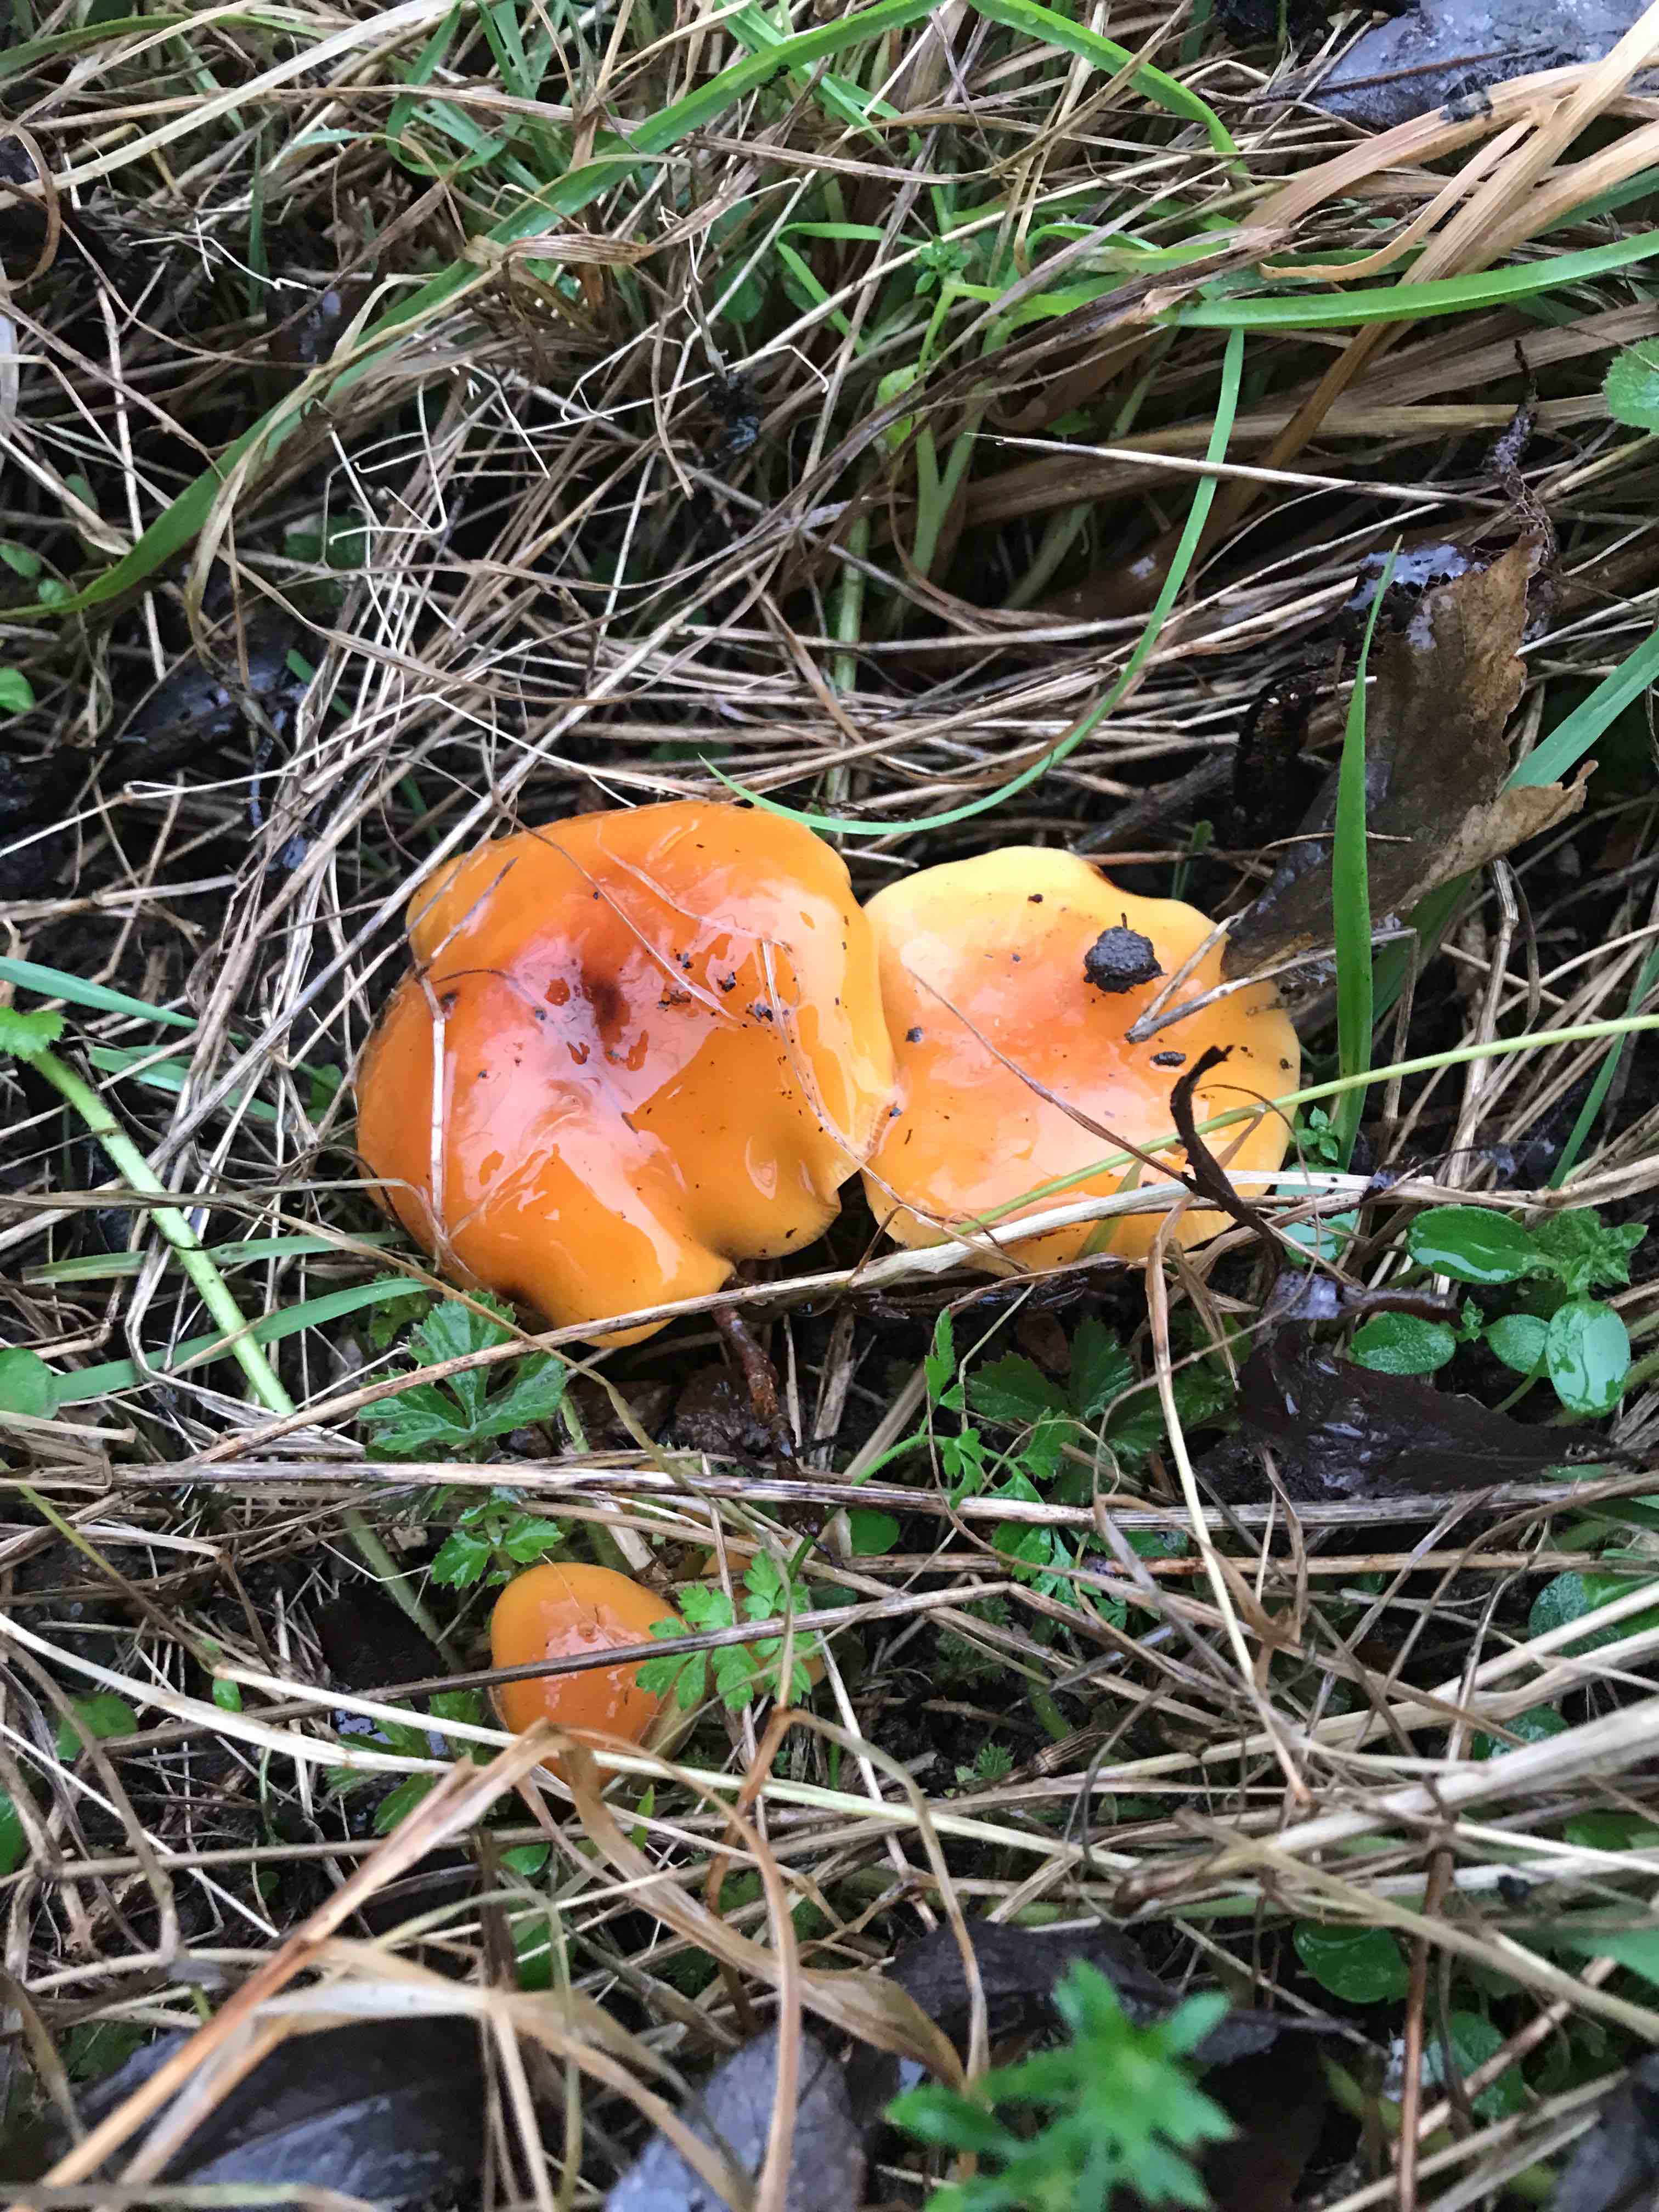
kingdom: Fungi
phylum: Basidiomycota
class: Agaricomycetes
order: Agaricales
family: Physalacriaceae
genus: Flammulina
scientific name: Flammulina
